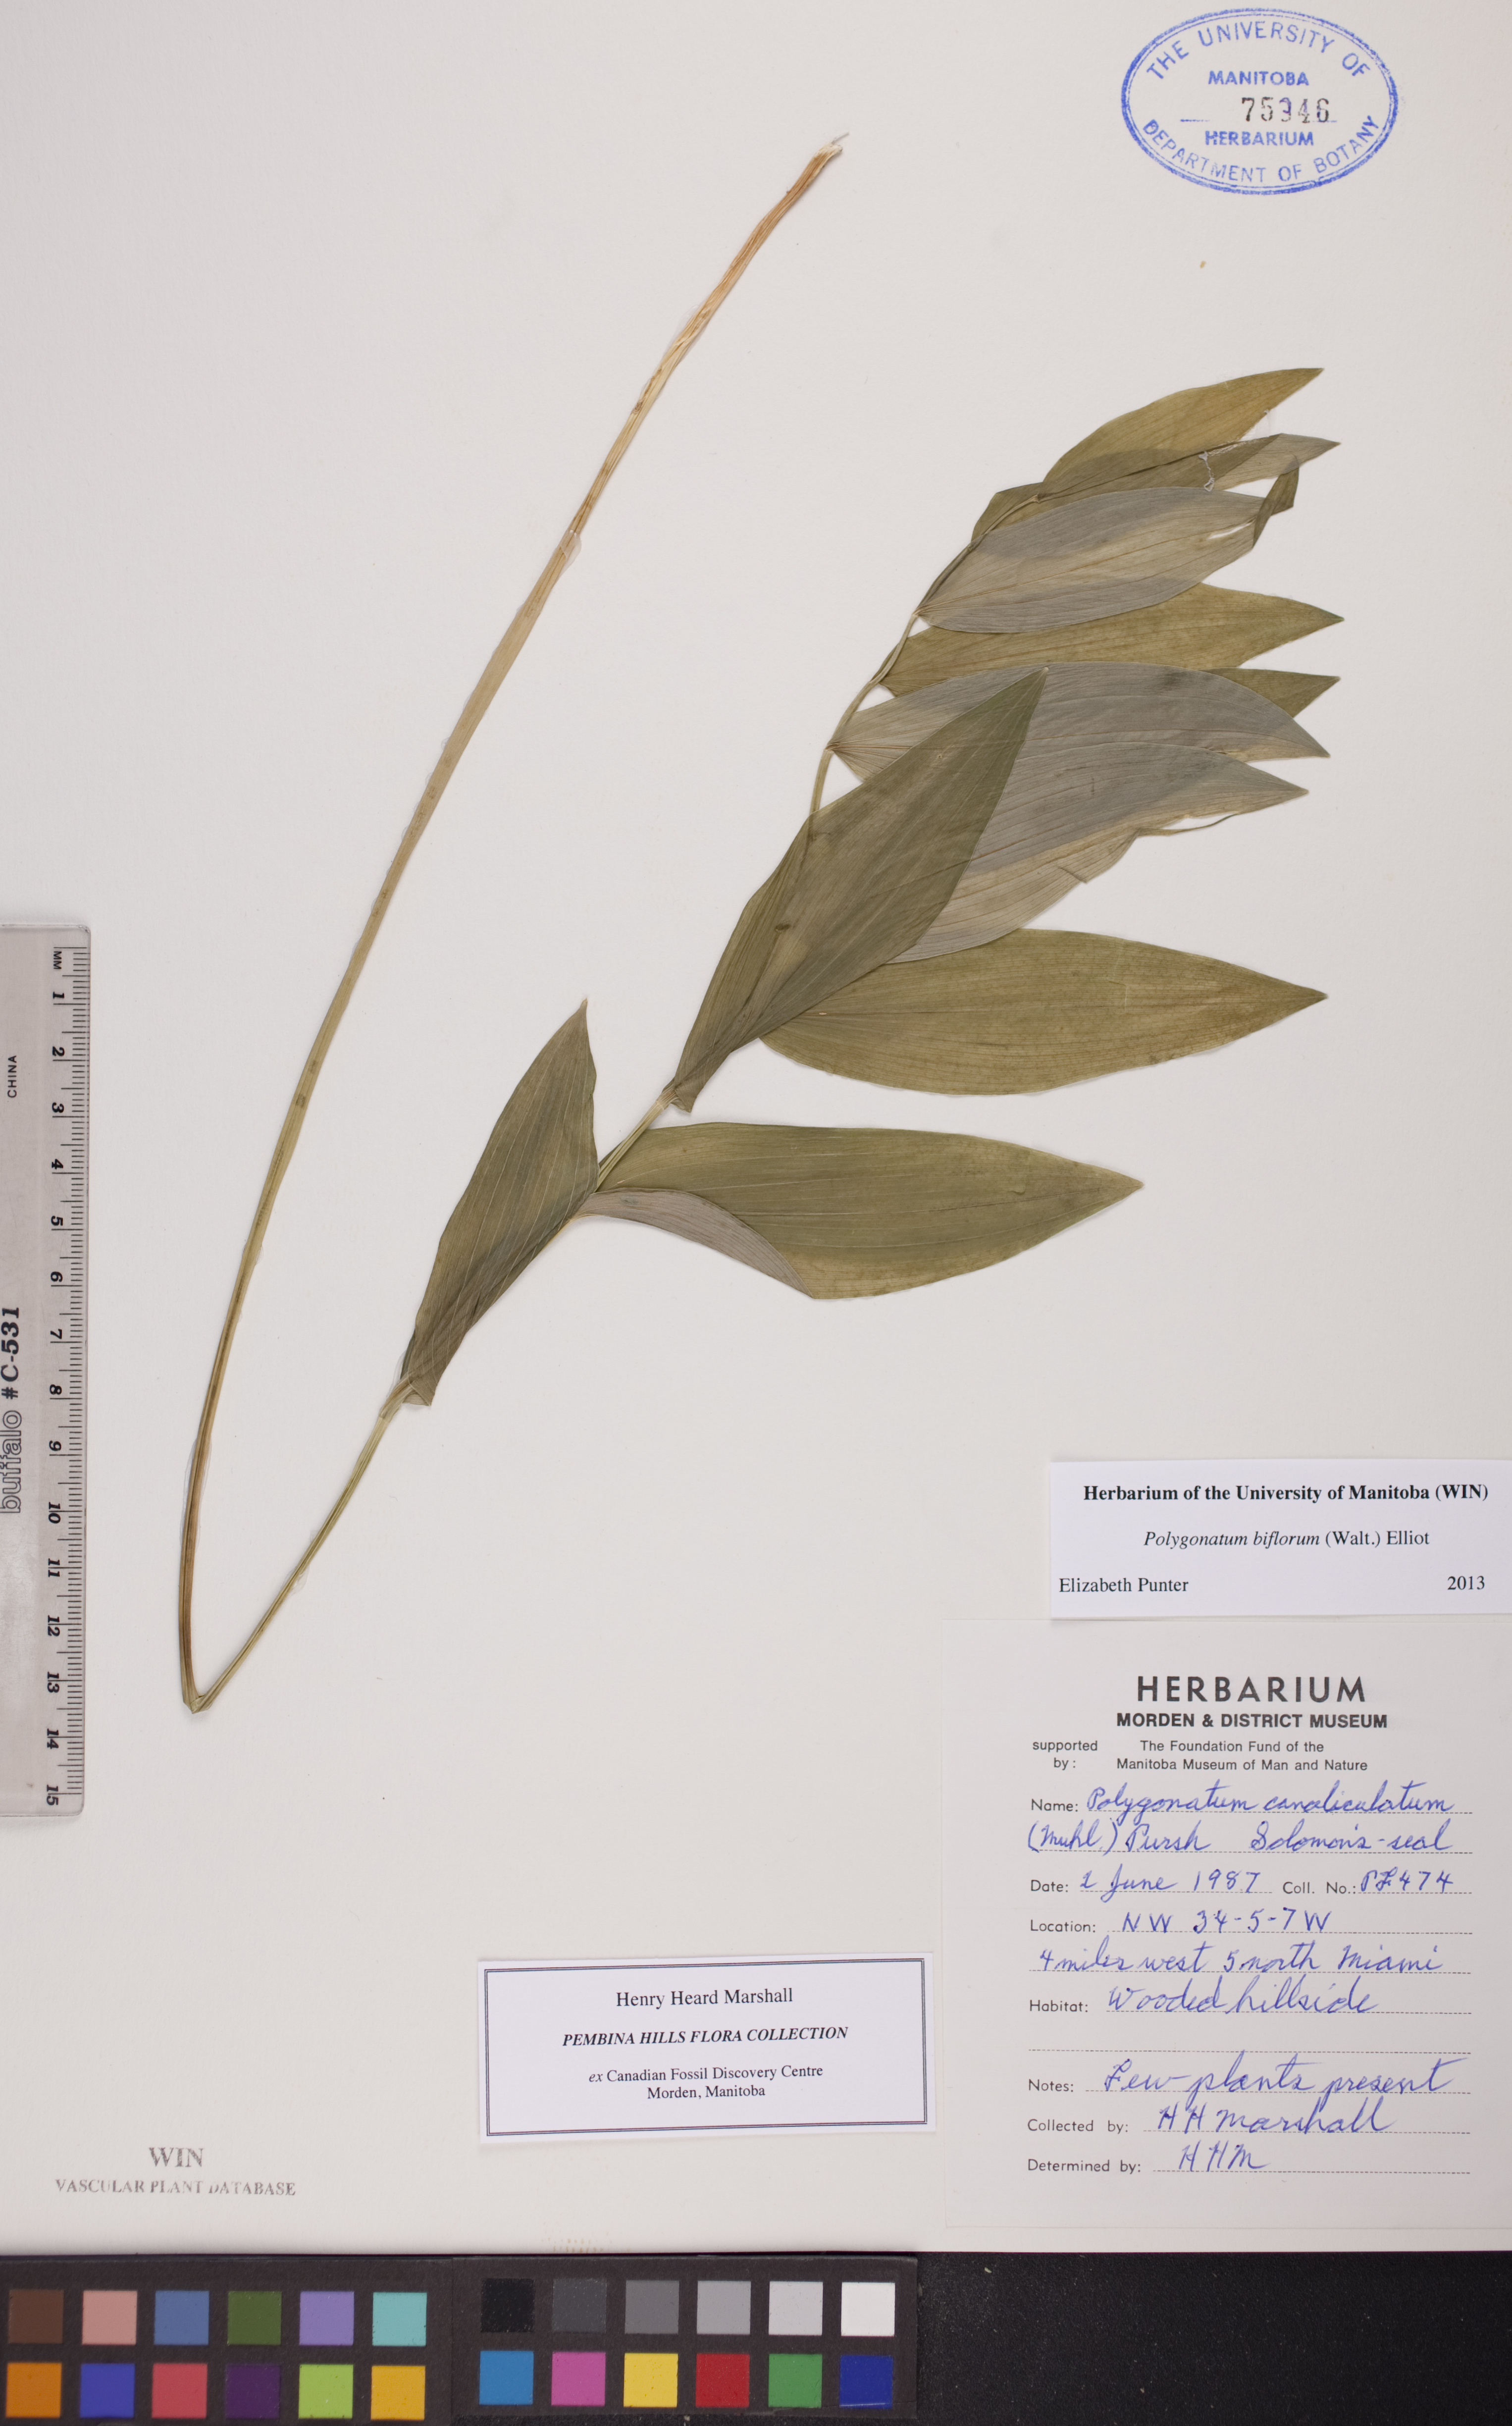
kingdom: Plantae
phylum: Tracheophyta
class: Liliopsida
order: Asparagales
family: Asparagaceae
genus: Polygonatum
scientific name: Polygonatum biflorum
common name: American solomon's-seal
